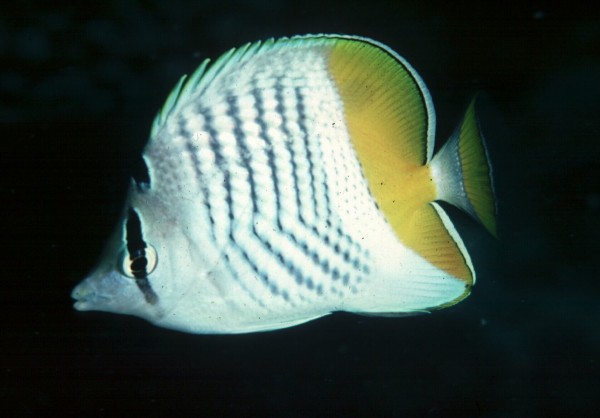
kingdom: Animalia
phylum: Chordata
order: Perciformes
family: Chaetodontidae
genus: Chaetodon
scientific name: Chaetodon madagaskariensis
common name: Madagascar butterflyfish
